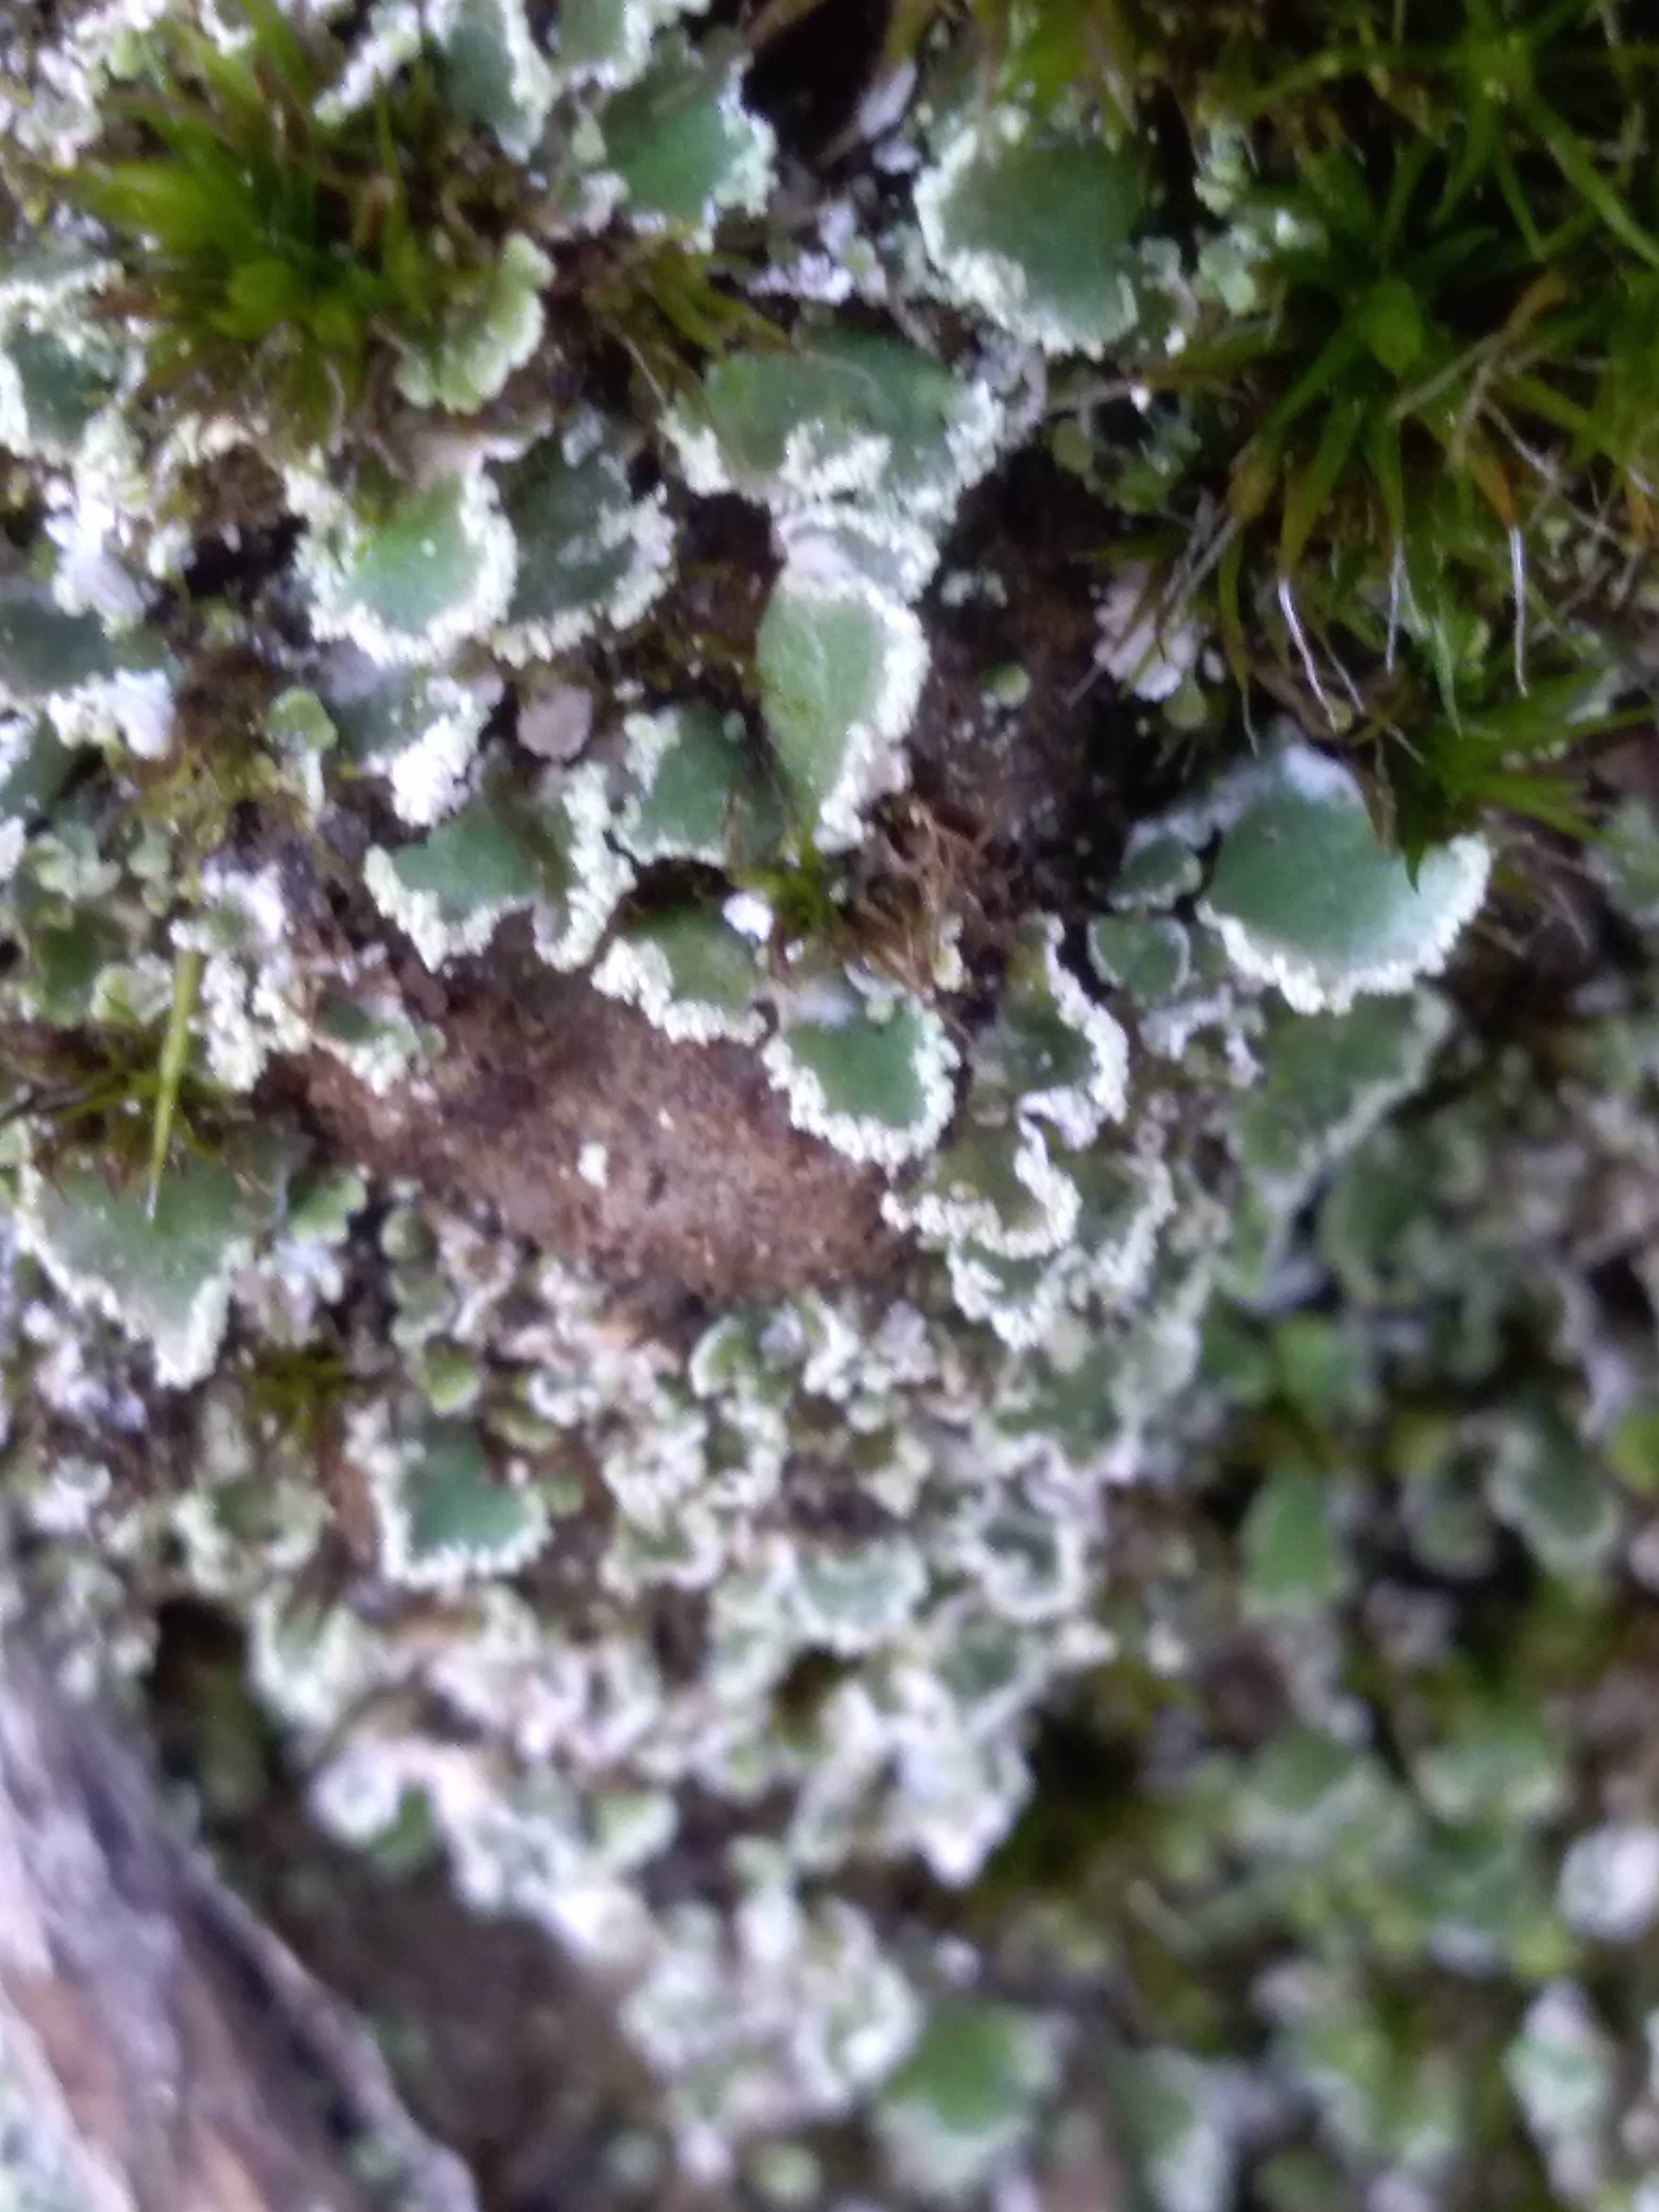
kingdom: Fungi
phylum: Ascomycota
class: Lecanoromycetes
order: Lecanorales
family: Cladoniaceae
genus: Cladonia
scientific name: Cladonia
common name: brungrøn bægerlav
